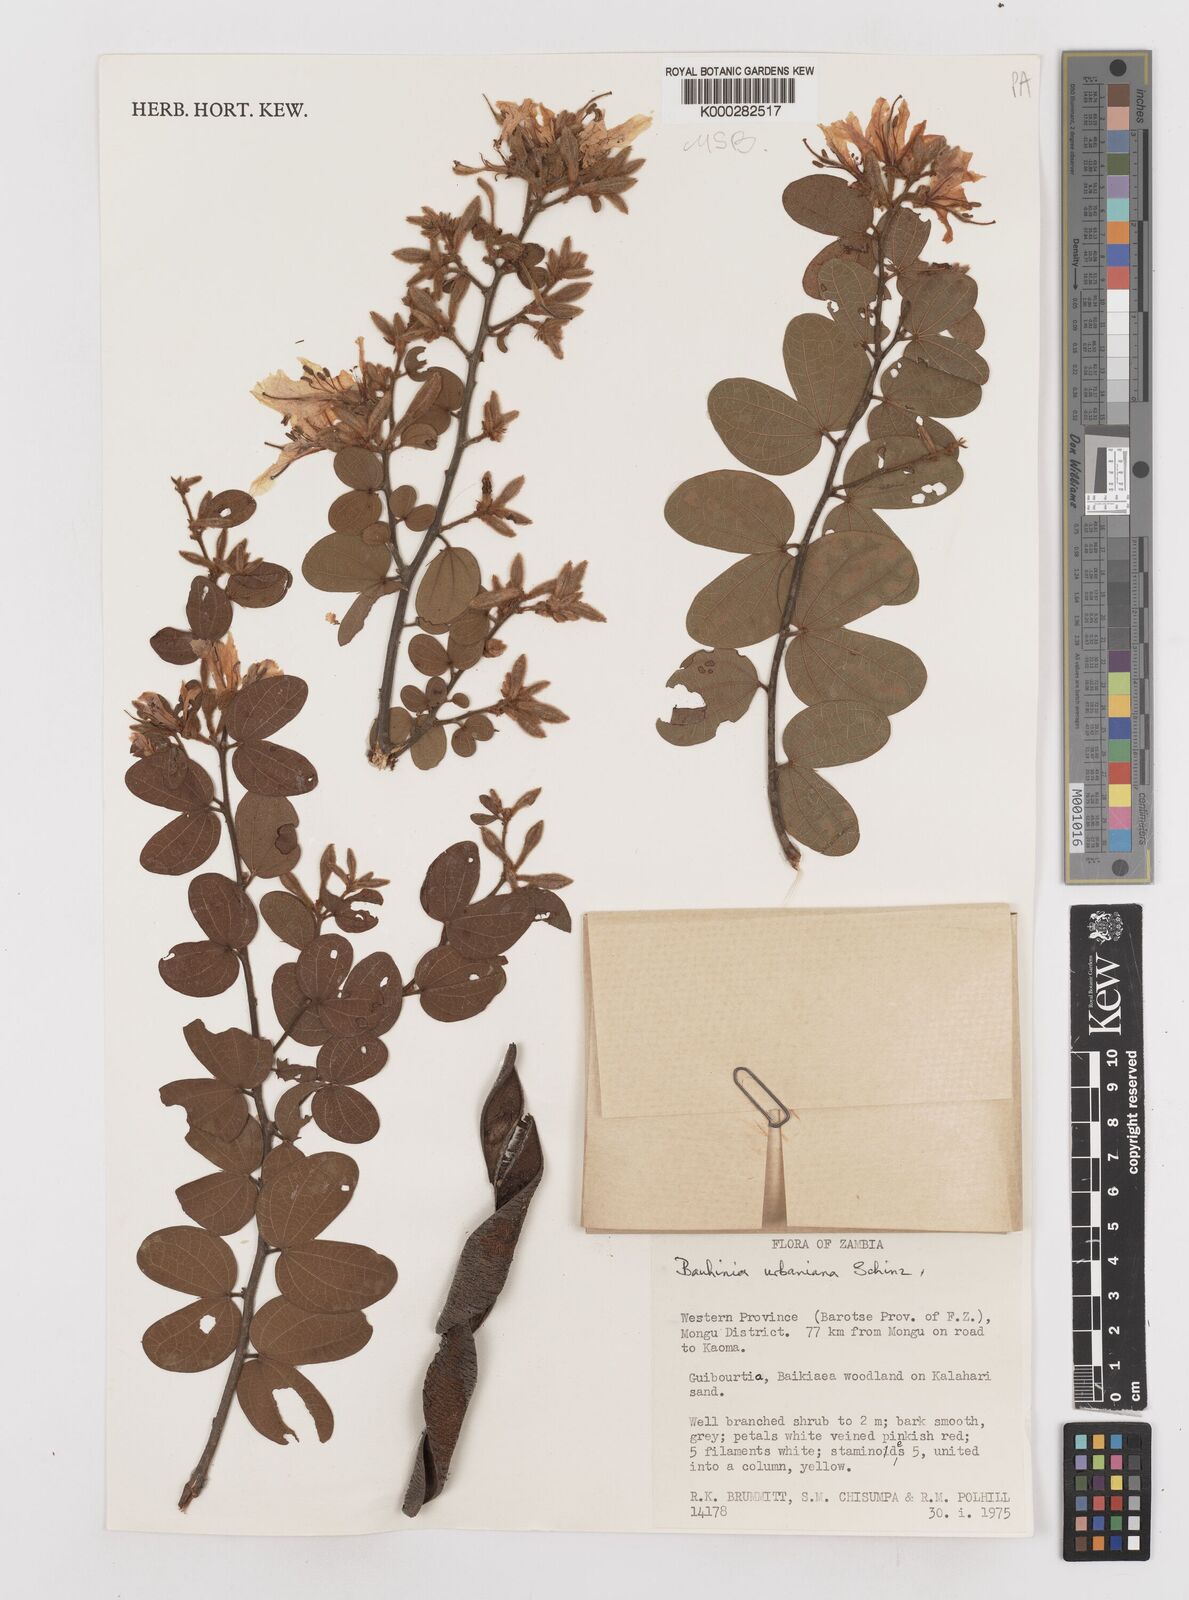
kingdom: Plantae
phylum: Tracheophyta
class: Magnoliopsida
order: Fabales
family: Fabaceae
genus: Bauhinia
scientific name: Bauhinia urbaniana
